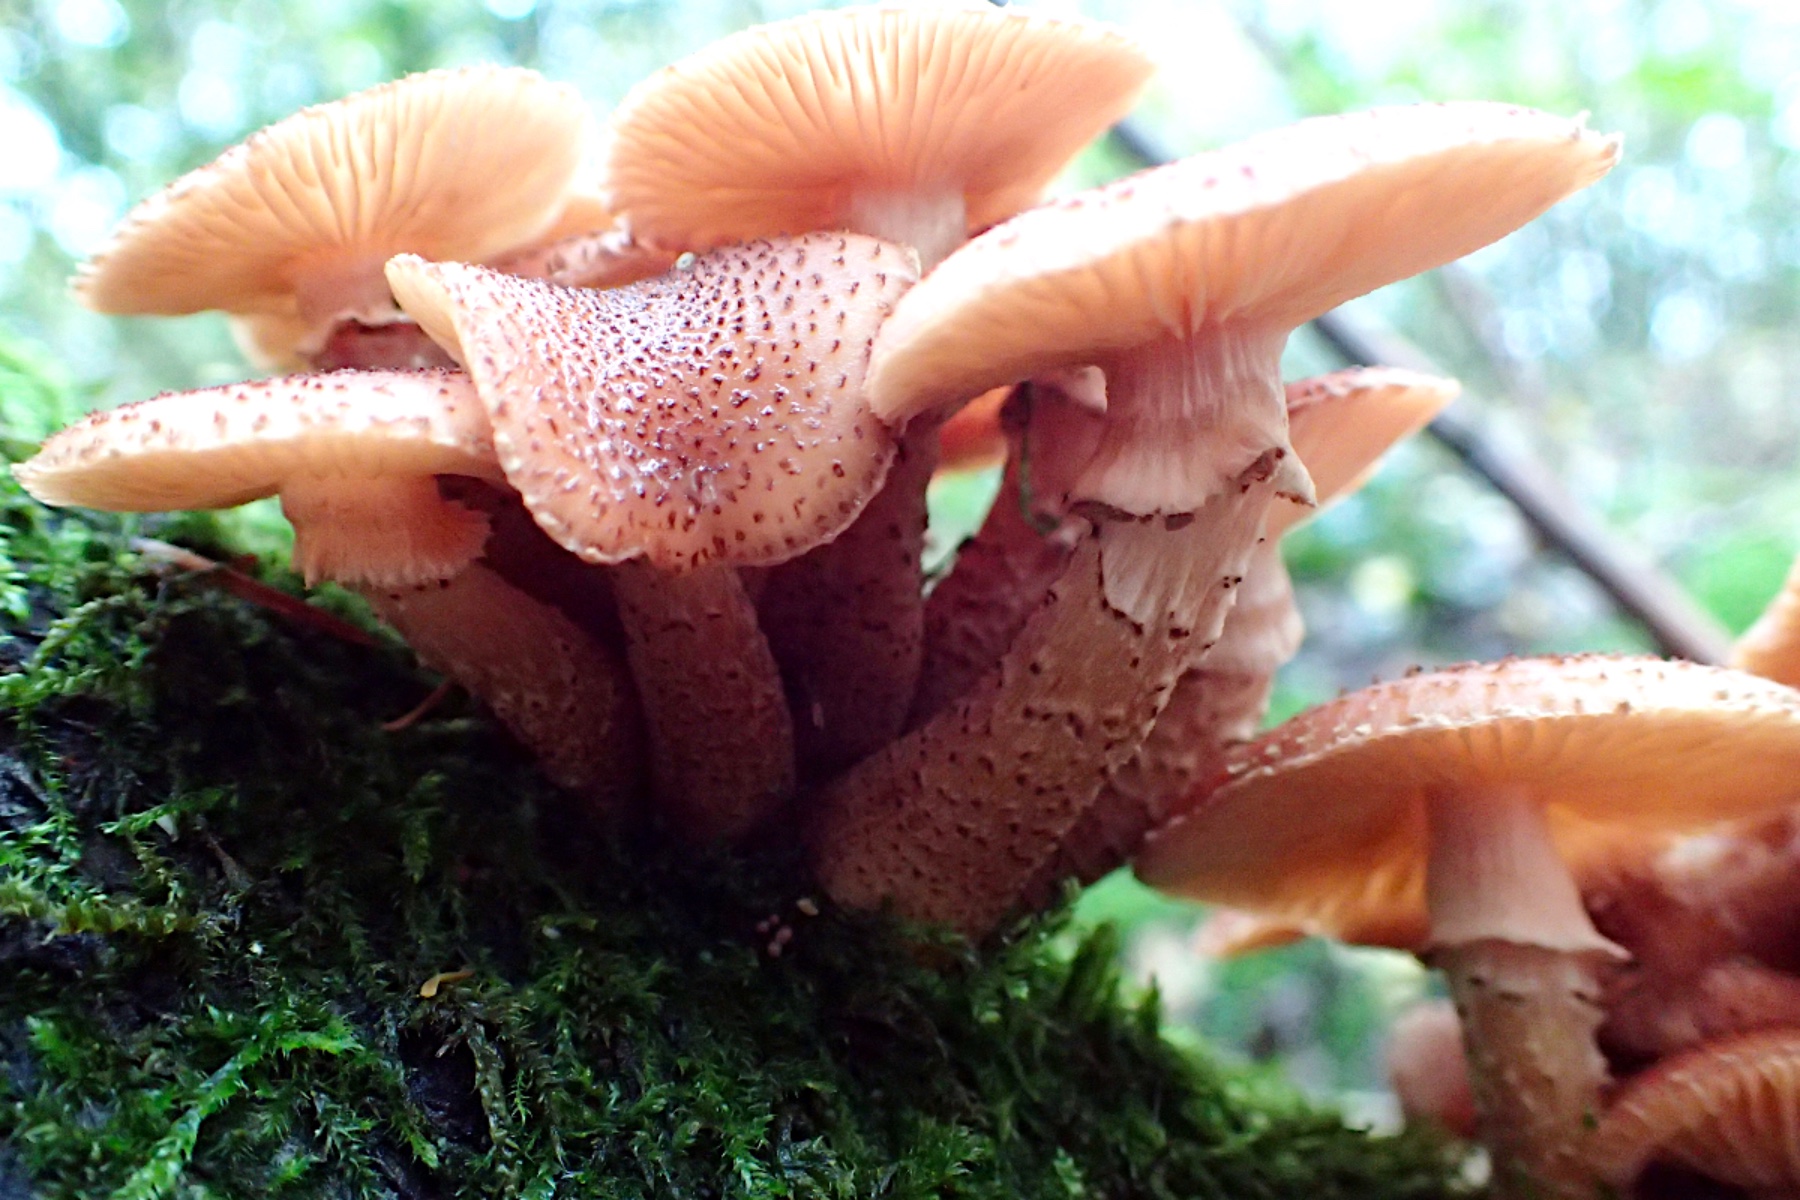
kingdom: Fungi
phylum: Basidiomycota
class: Agaricomycetes
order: Agaricales
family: Physalacriaceae
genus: Armillaria
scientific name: Armillaria ostoyae
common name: mørk honningsvamp
